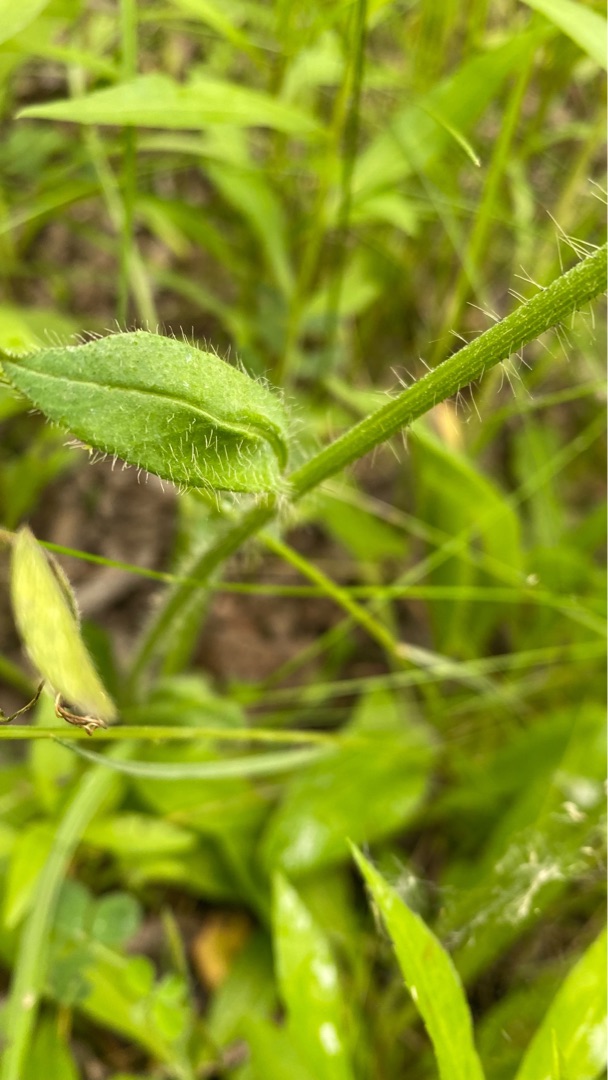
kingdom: Plantae
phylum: Tracheophyta
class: Magnoliopsida
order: Asterales
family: Asteraceae
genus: Pilosella
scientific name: Pilosella aurantiaca
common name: Pomerans-høgeurt
